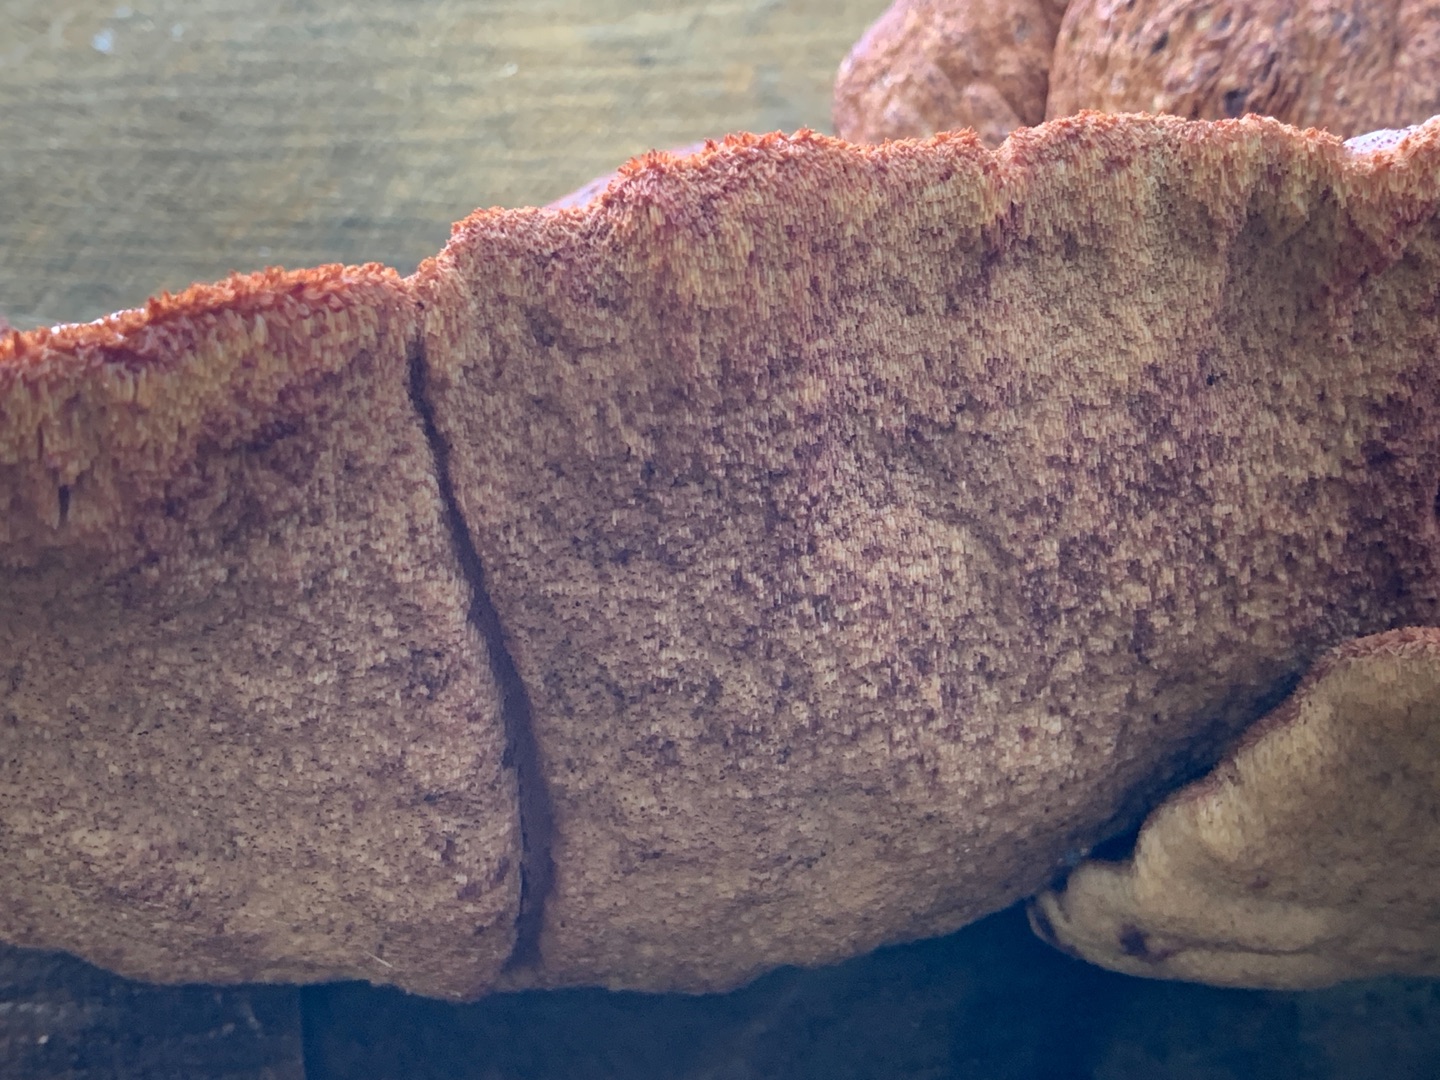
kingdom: Fungi
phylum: Basidiomycota
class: Agaricomycetes
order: Agaricales
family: Fistulinaceae
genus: Fistulina
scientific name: Fistulina hepatica
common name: Oksetunge
